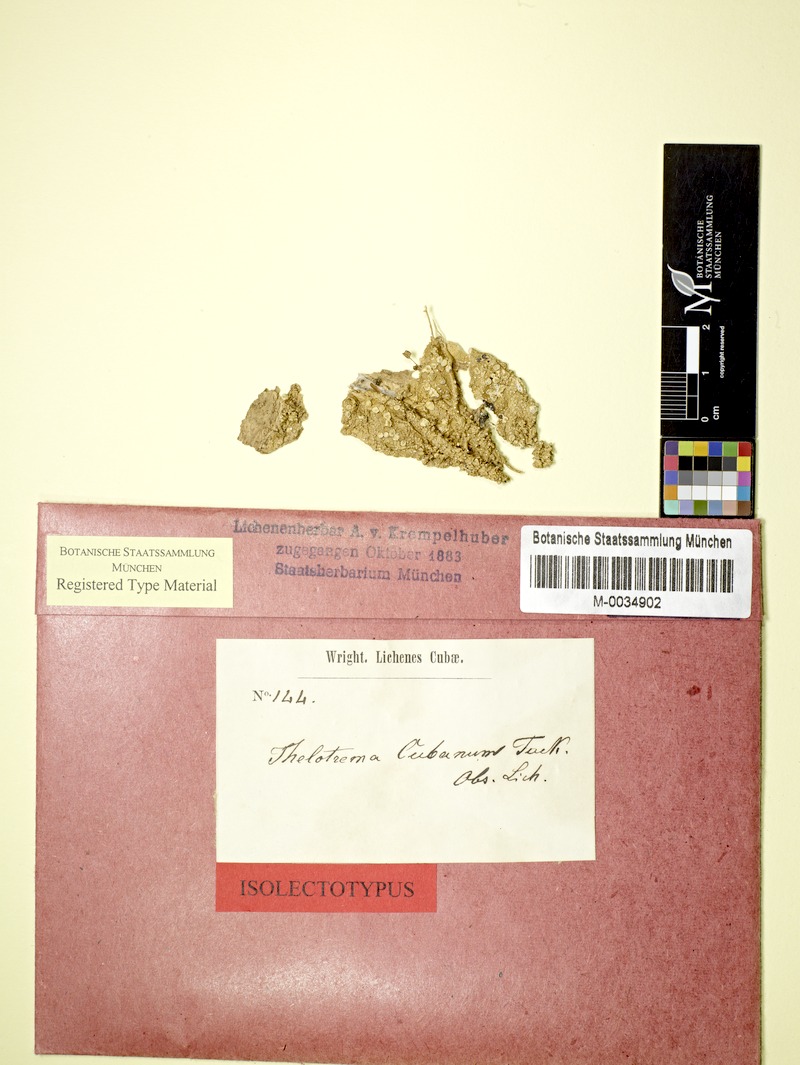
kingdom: Fungi
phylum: Ascomycota
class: Lecanoromycetes
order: Ostropales
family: Graphidaceae
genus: Stegobolus
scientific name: Stegobolus fissus
